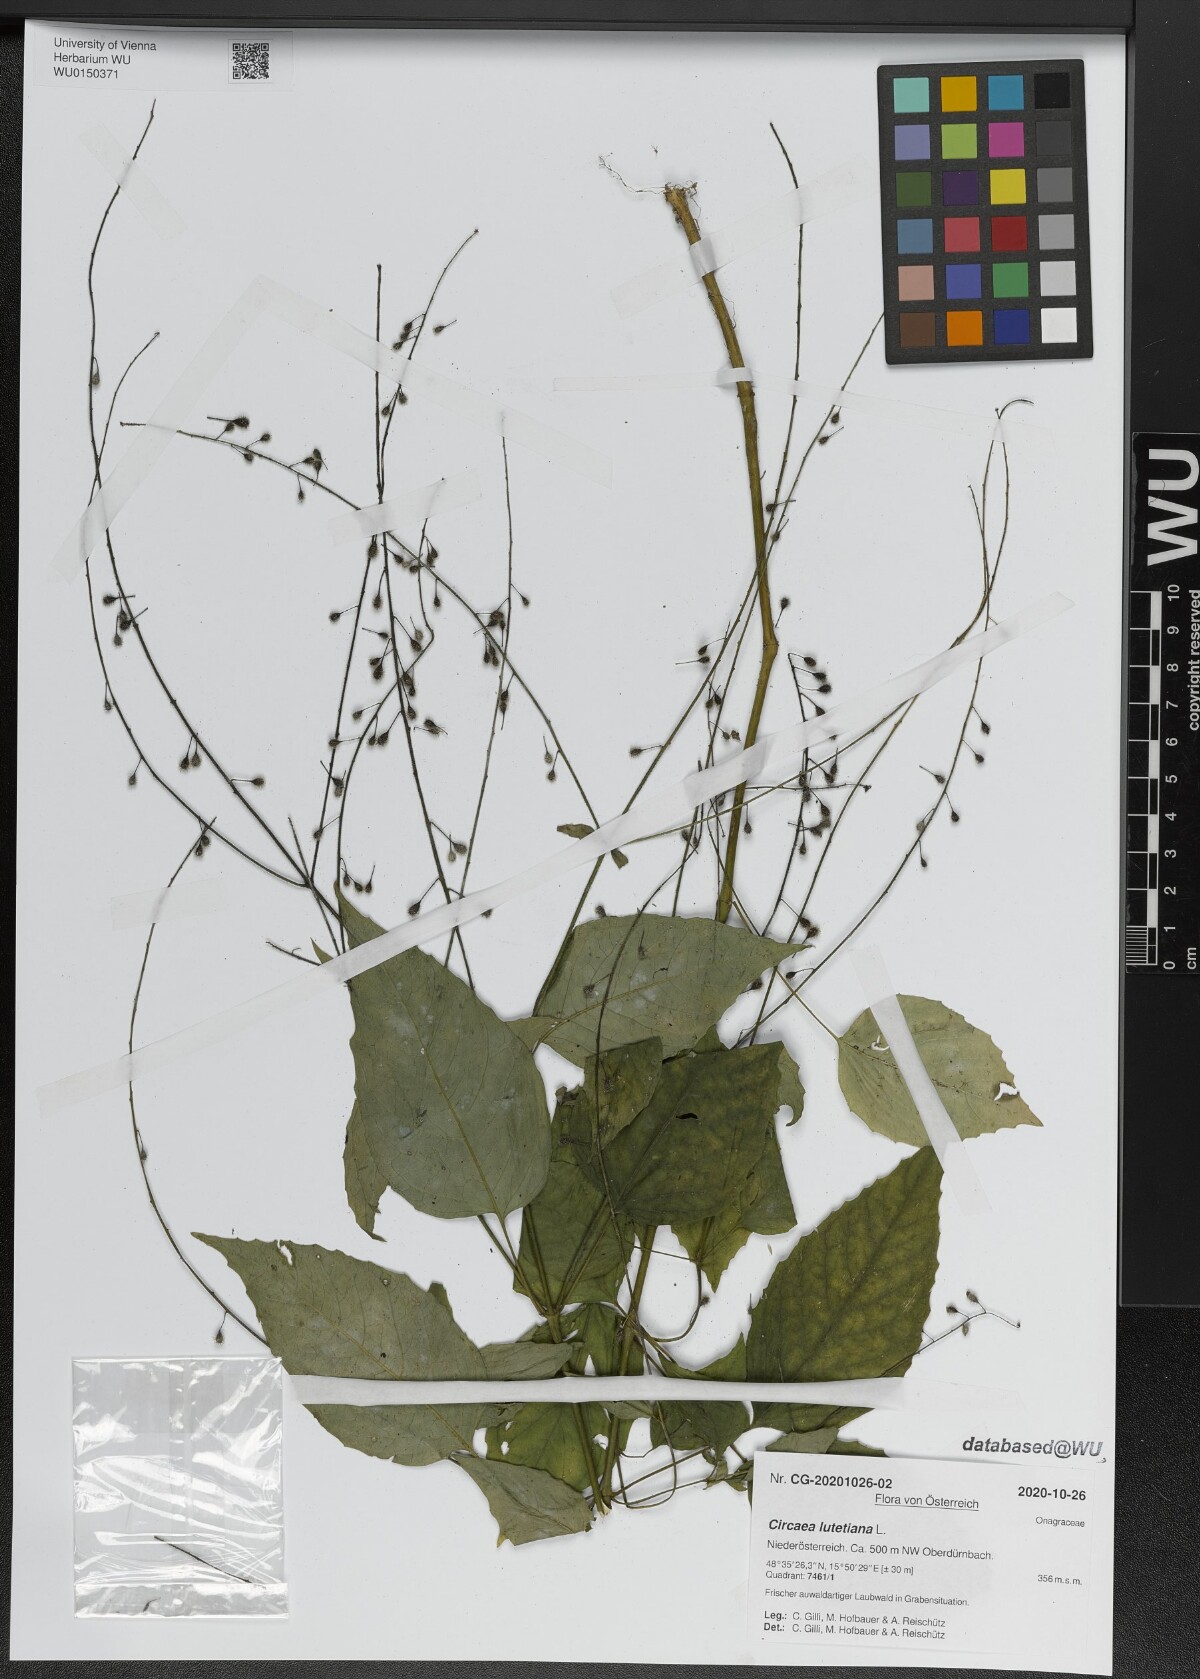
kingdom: Plantae
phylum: Tracheophyta
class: Magnoliopsida
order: Myrtales
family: Onagraceae
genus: Circaea
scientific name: Circaea lutetiana
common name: Enchanter's-nightshade
